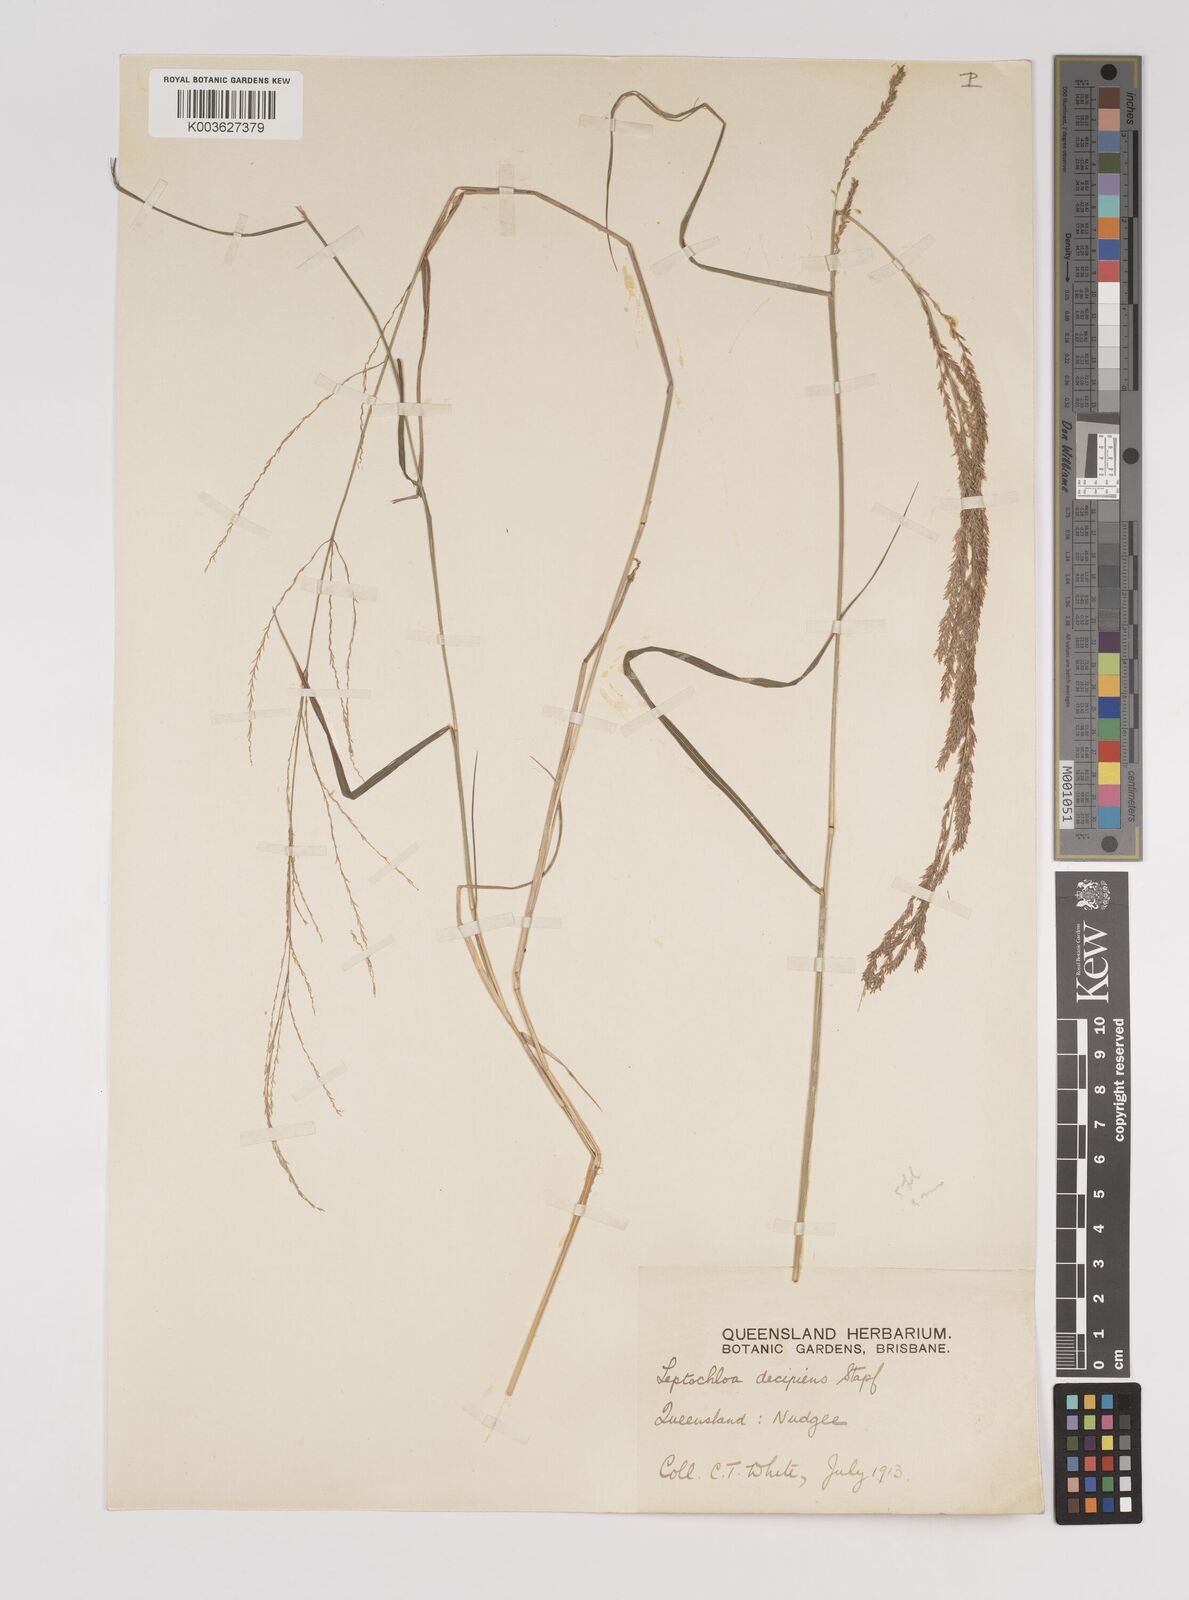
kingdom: Plantae
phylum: Tracheophyta
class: Liliopsida
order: Poales
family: Poaceae
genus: Leptochloa
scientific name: Leptochloa decipiens
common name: Australian sprangletop
